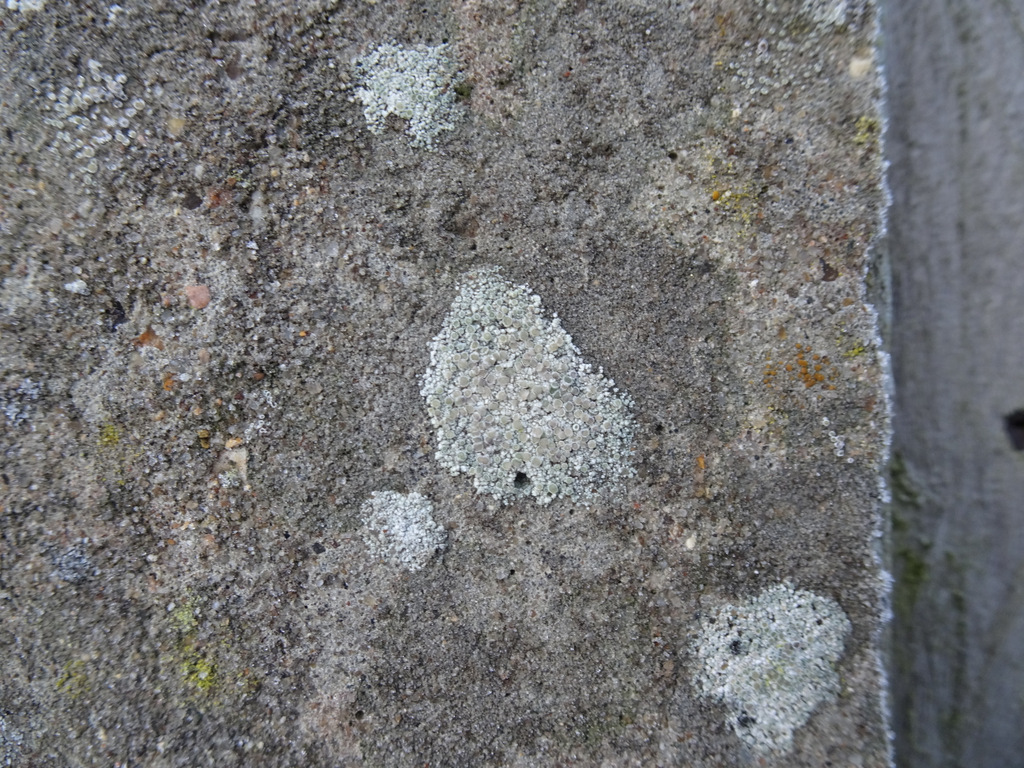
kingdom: Fungi
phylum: Ascomycota
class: Lecanoromycetes
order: Lecanorales
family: Lecanoraceae
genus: Polyozosia
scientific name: Polyozosia albescens
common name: cement-kantskivelav
